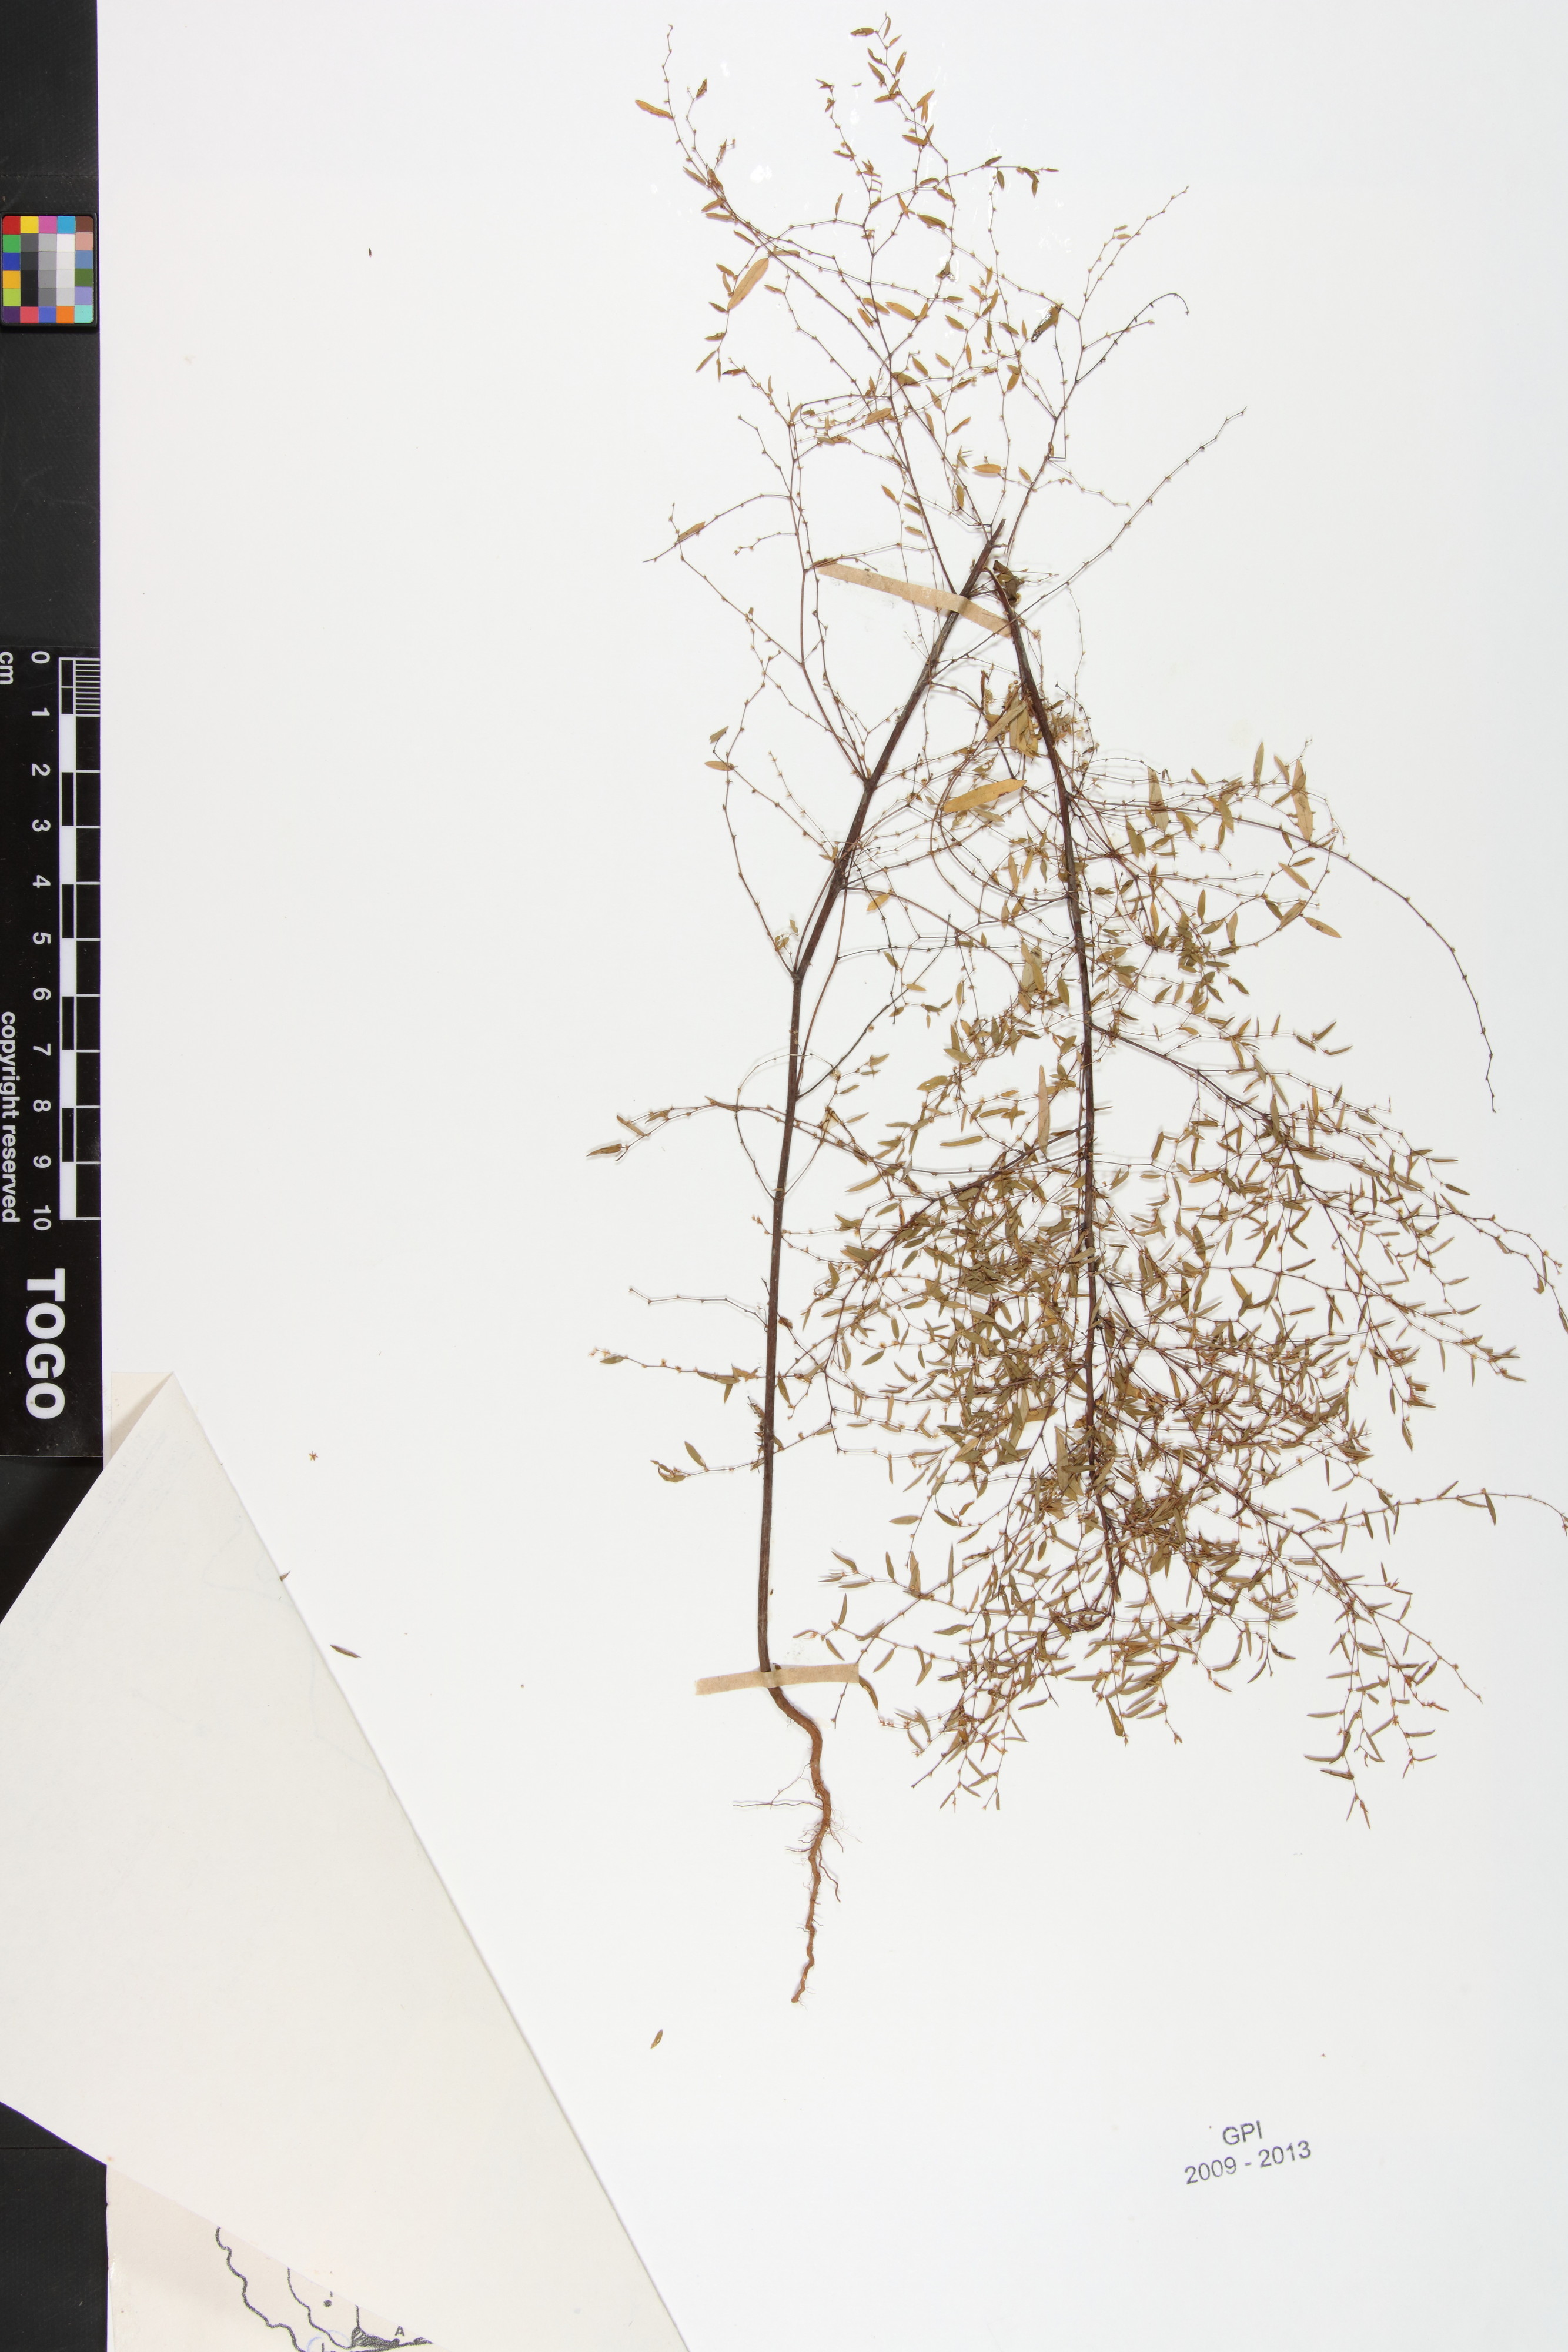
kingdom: Plantae
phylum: Tracheophyta
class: Magnoliopsida
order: Malpighiales
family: Phyllanthaceae
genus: Phyllanthus
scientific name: Phyllanthus pentandrus
